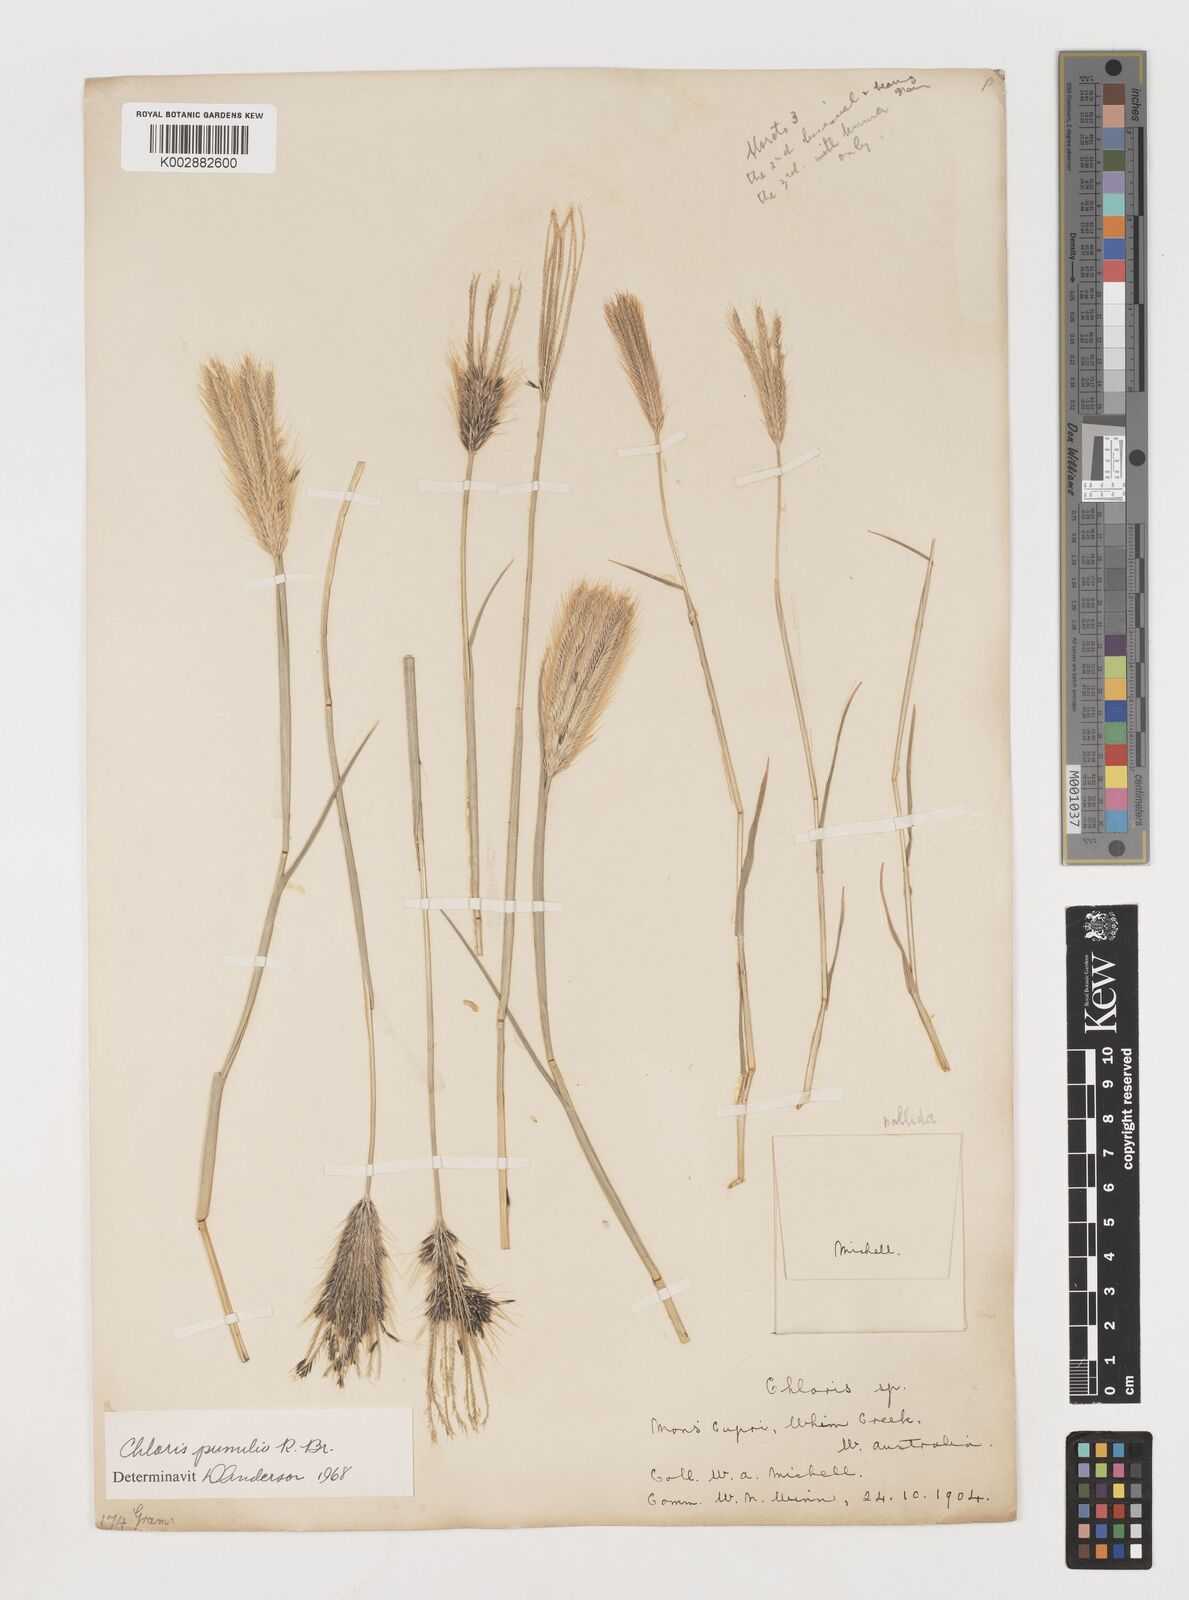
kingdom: Plantae
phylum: Tracheophyta
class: Liliopsida
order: Poales
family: Poaceae
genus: Chloris
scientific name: Chloris pumilio
